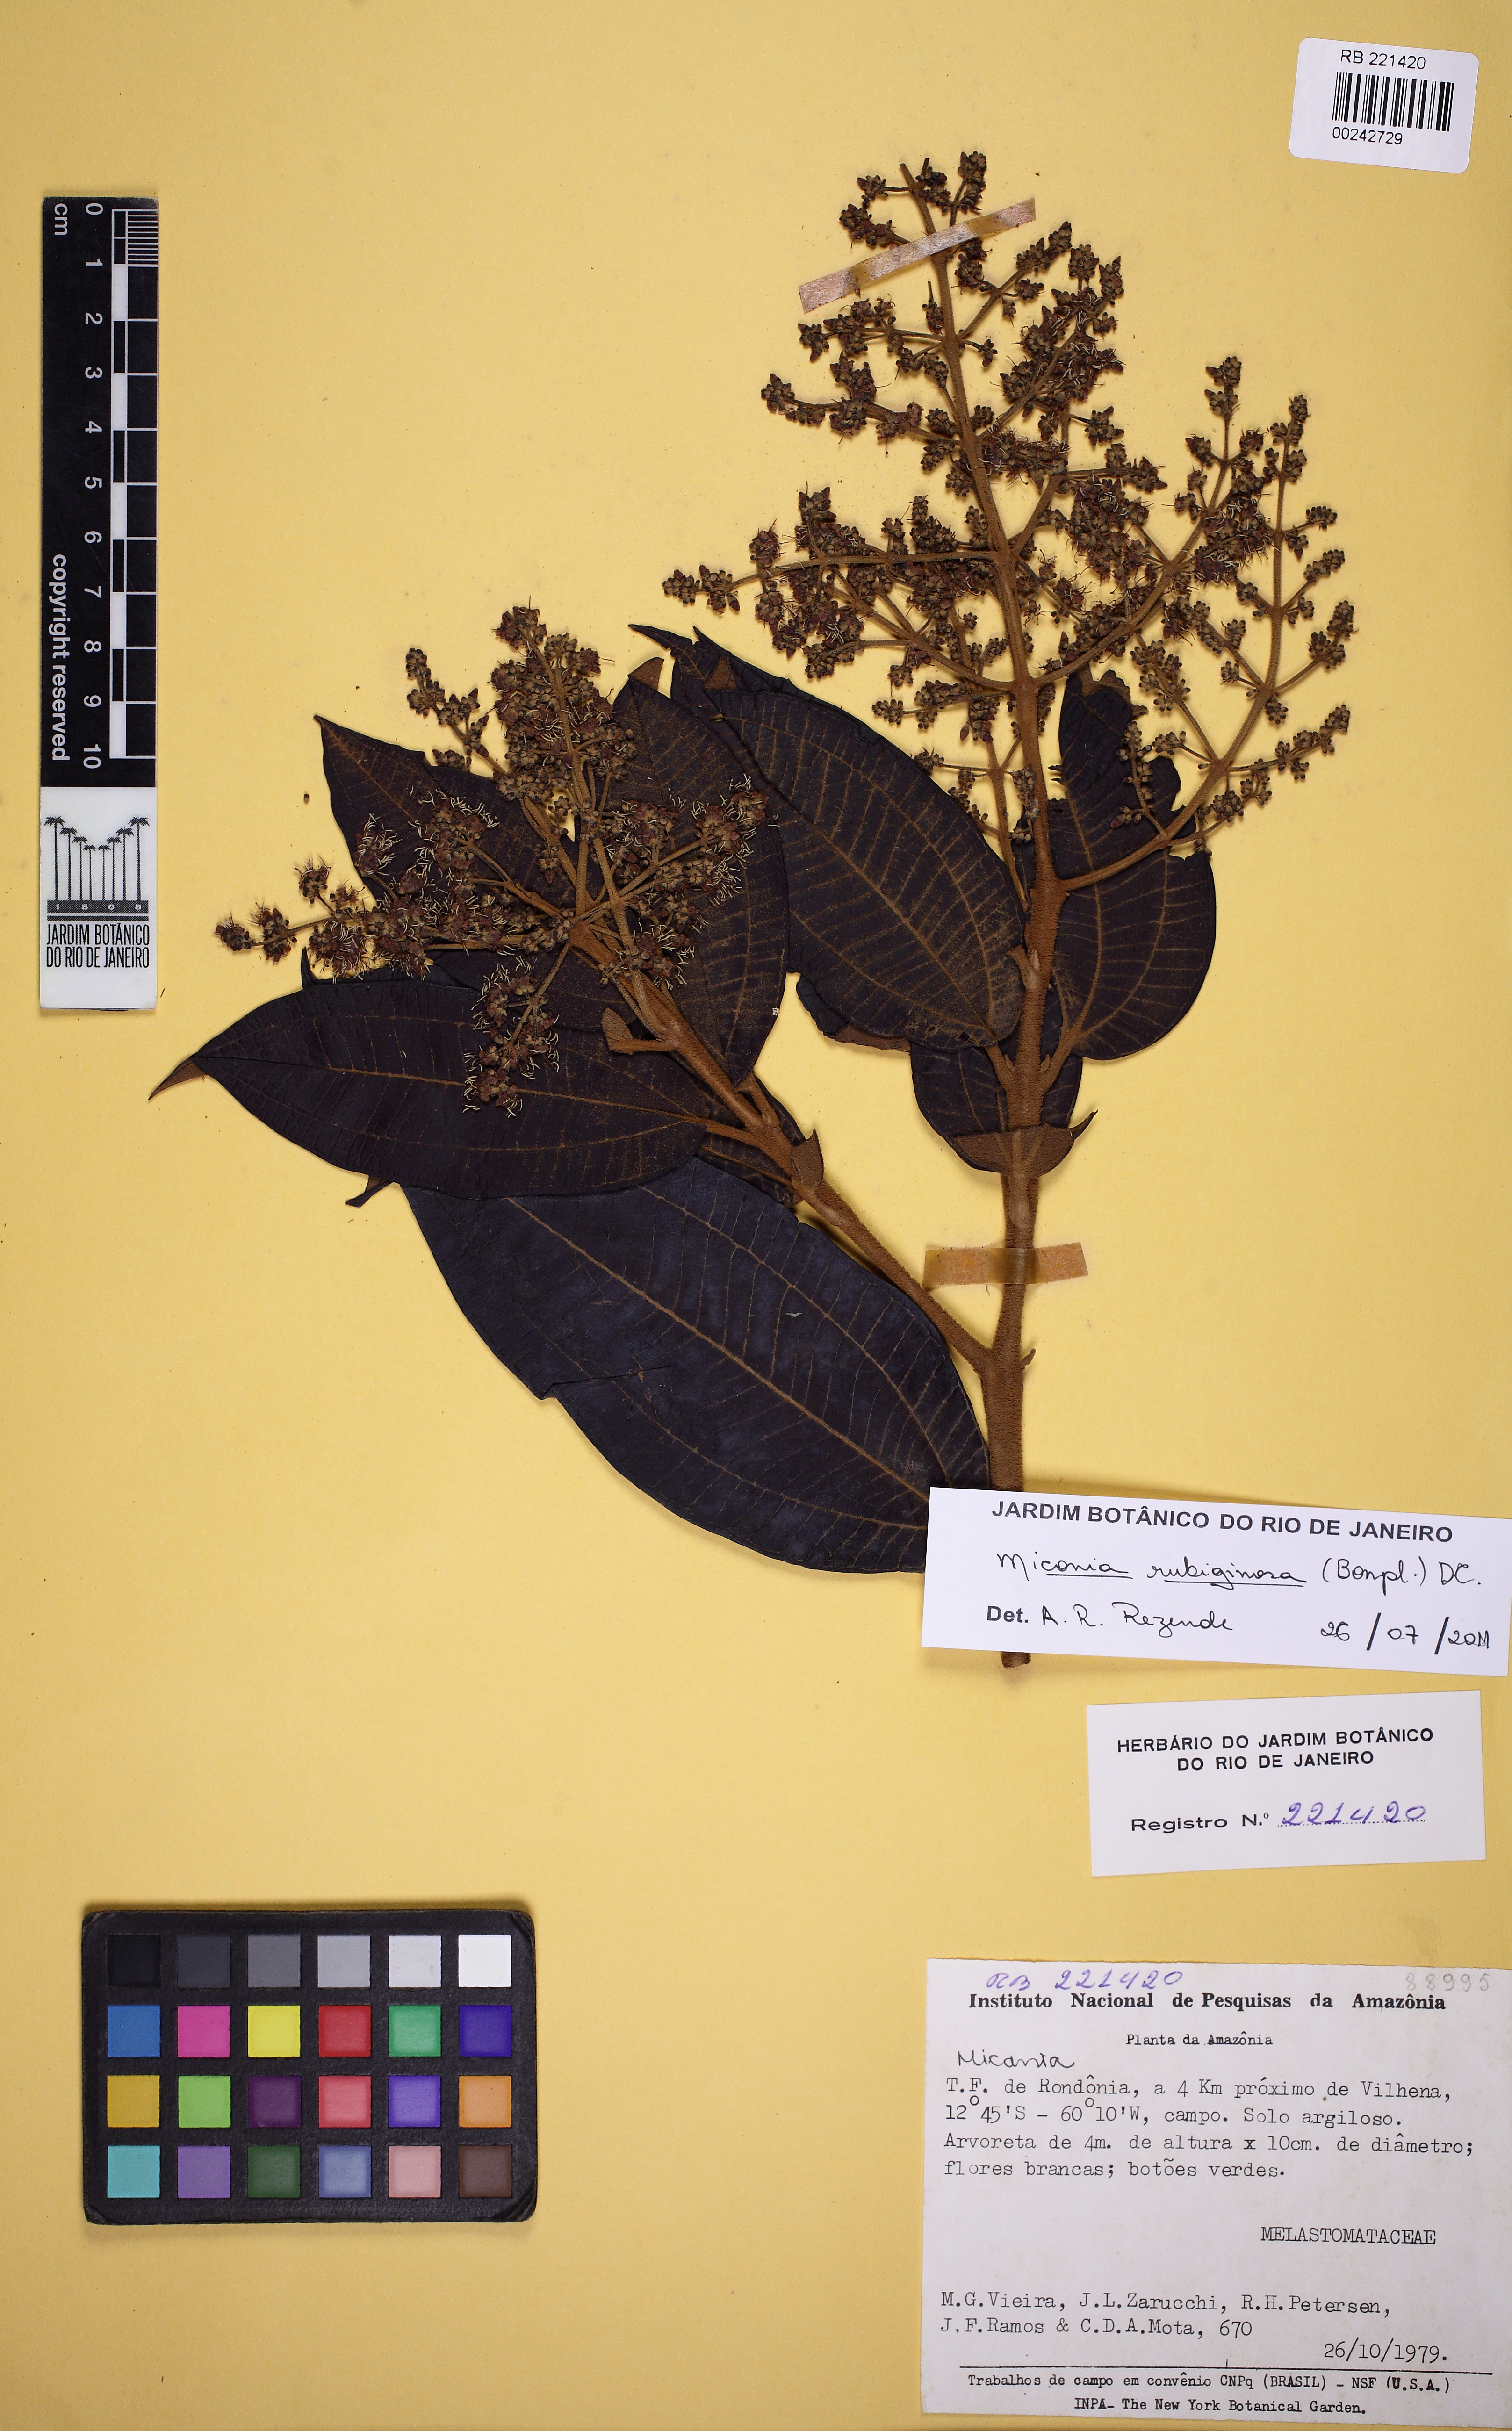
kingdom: Plantae
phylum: Tracheophyta
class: Magnoliopsida
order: Myrtales
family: Melastomataceae
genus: Miconia
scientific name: Miconia rubiginosa
